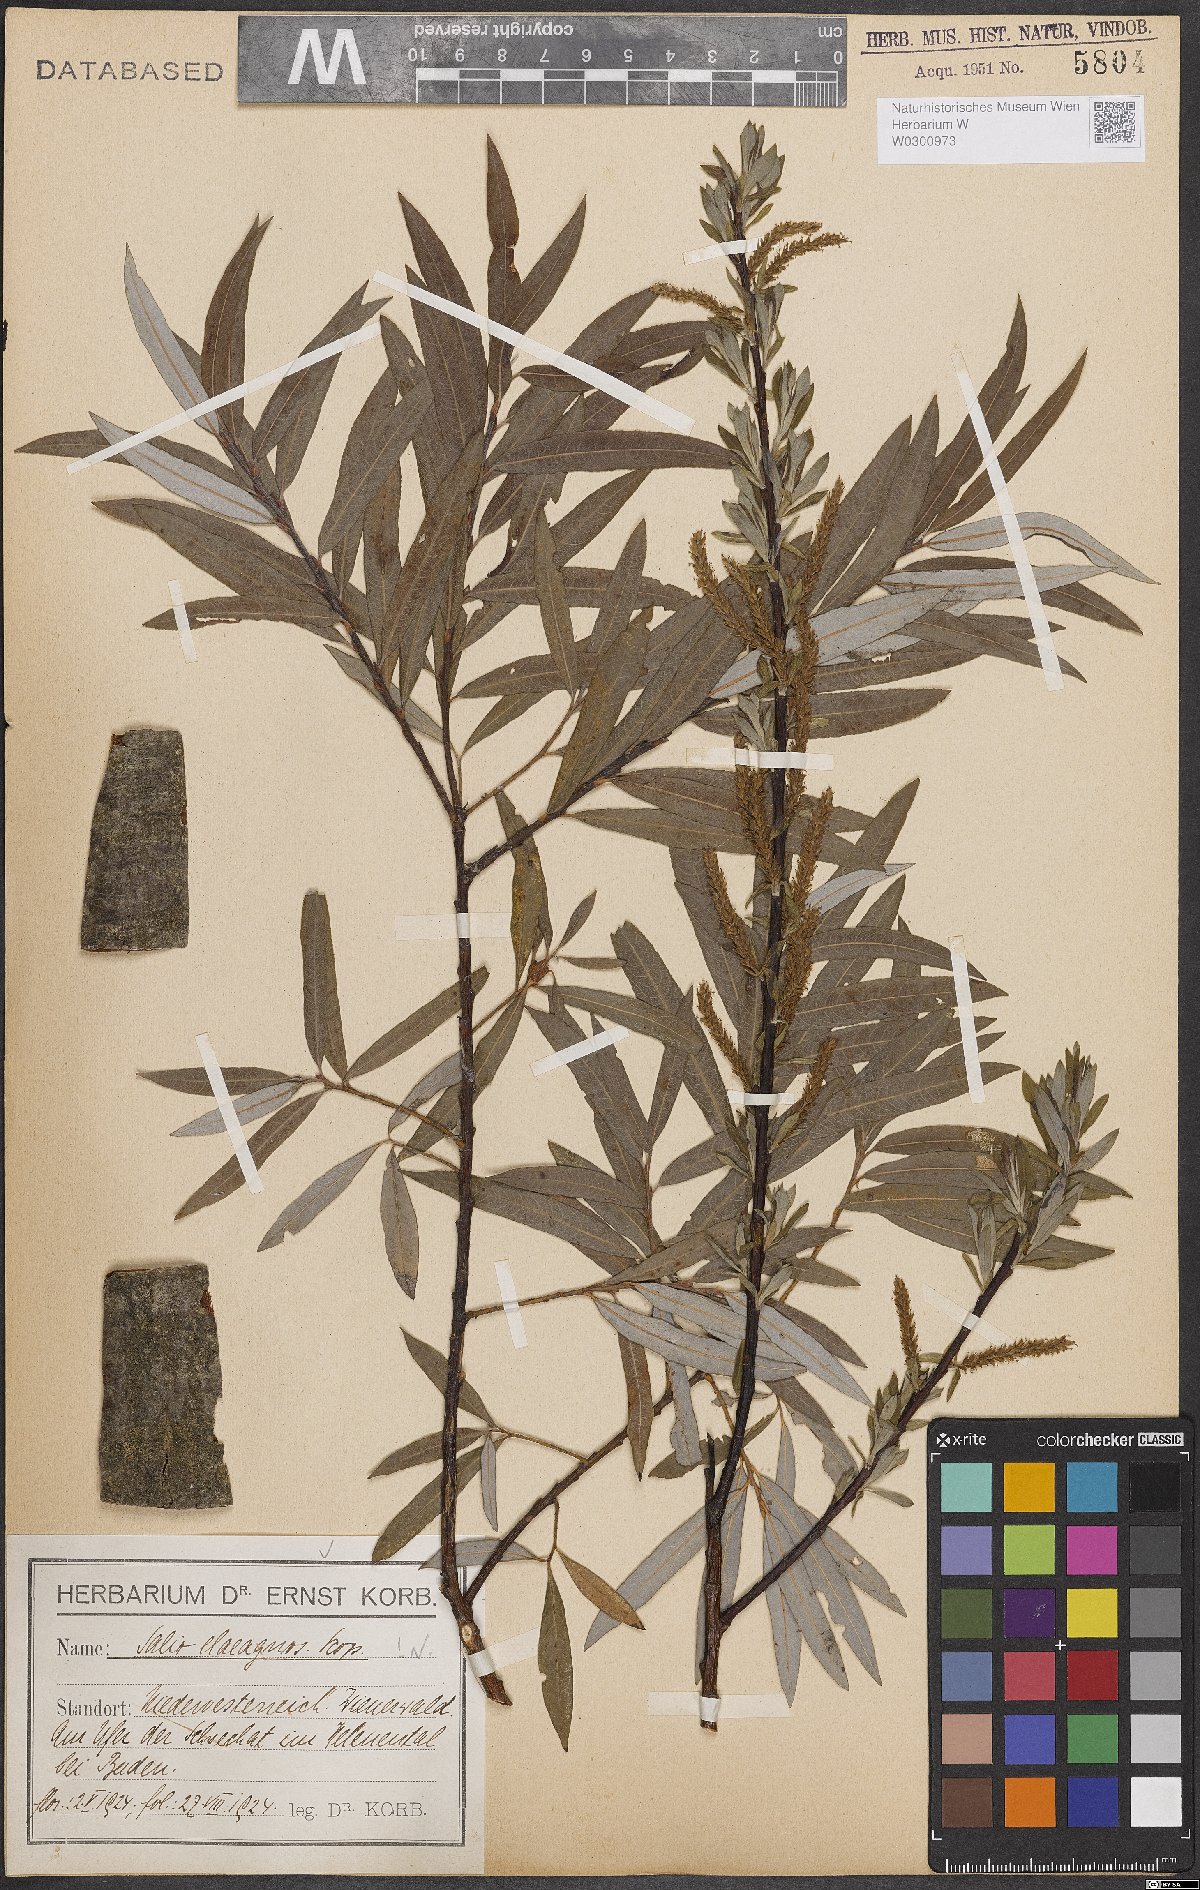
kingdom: Plantae
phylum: Tracheophyta
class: Magnoliopsida
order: Malpighiales
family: Salicaceae
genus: Salix
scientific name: Salix eleagnos
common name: Elaeagnus willow
